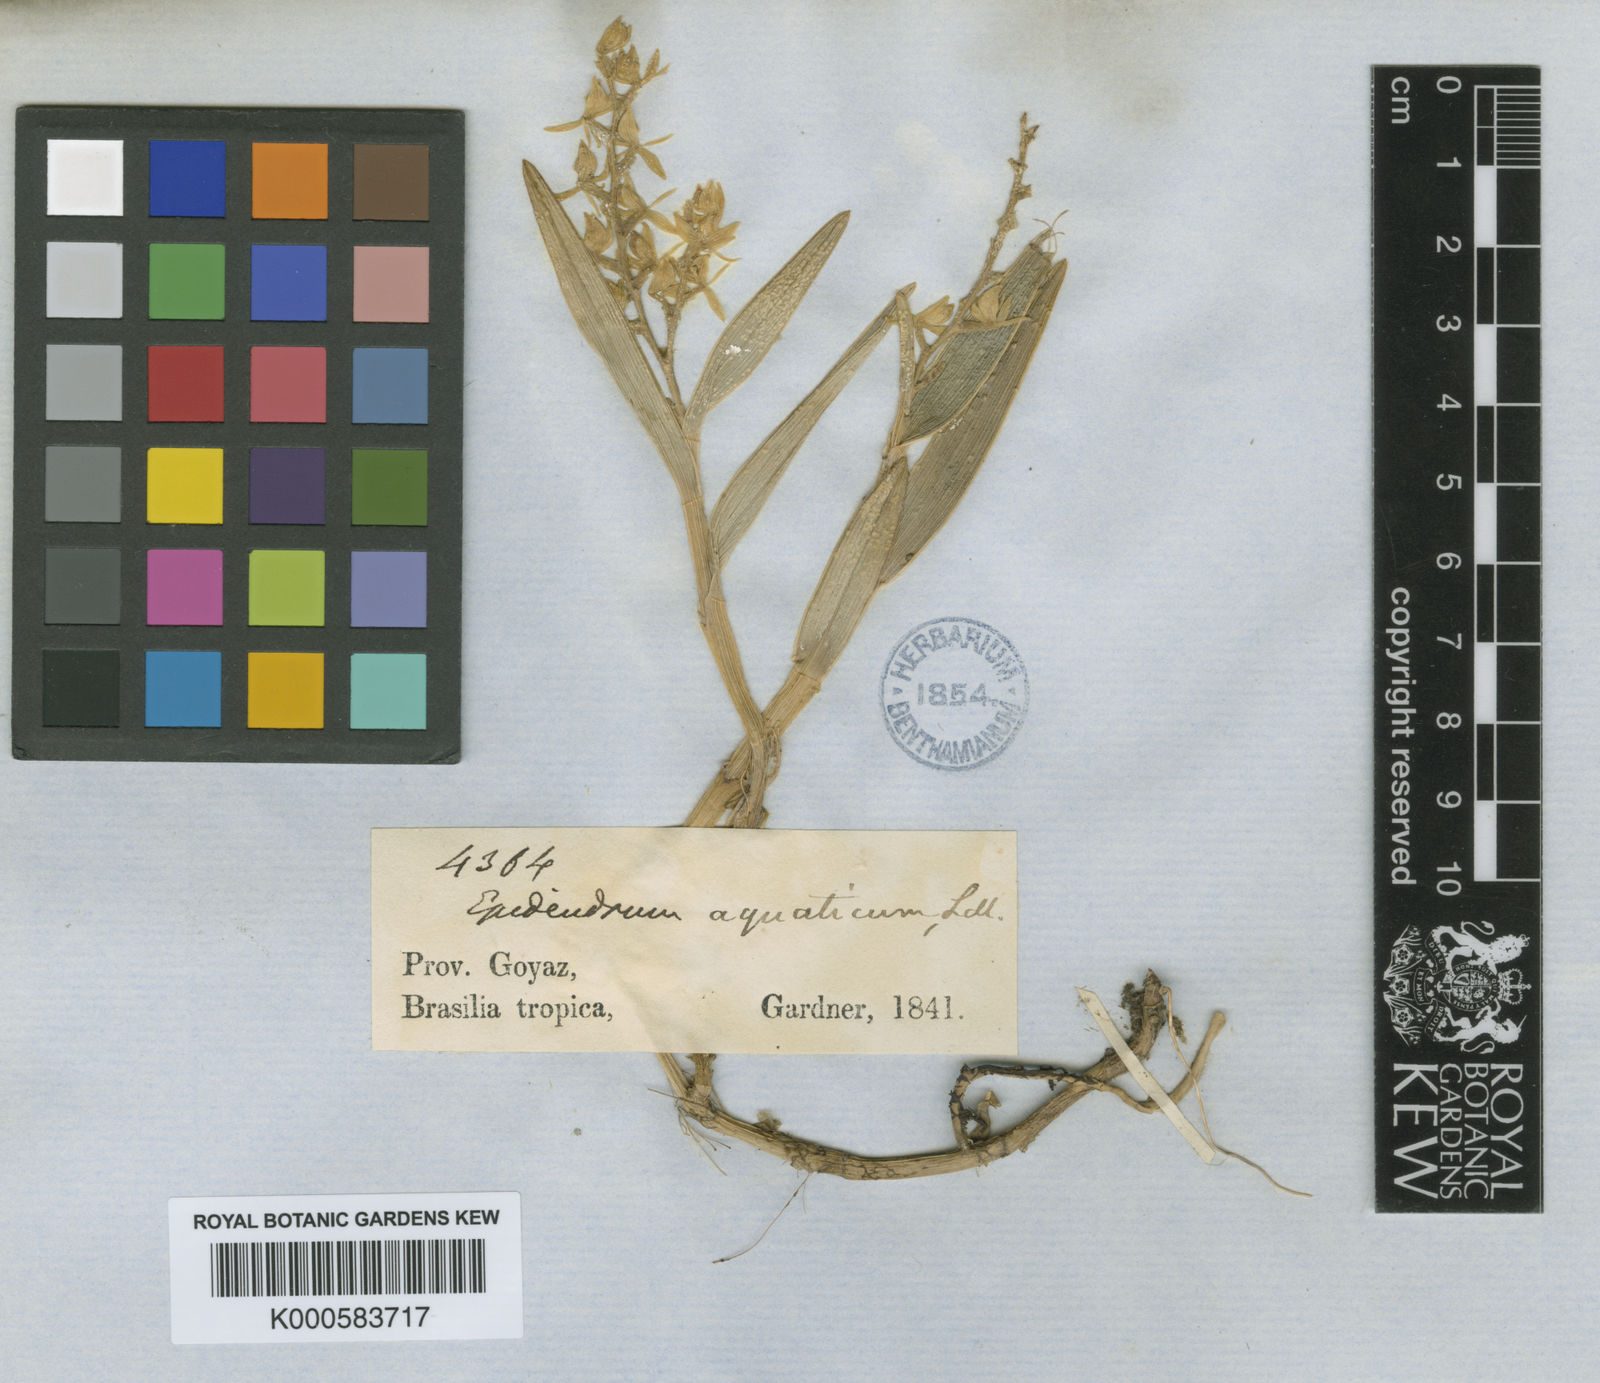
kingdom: Plantae
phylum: Tracheophyta
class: Liliopsida
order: Asparagales
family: Orchidaceae
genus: Epidendrum
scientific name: Epidendrum dendrobioides
